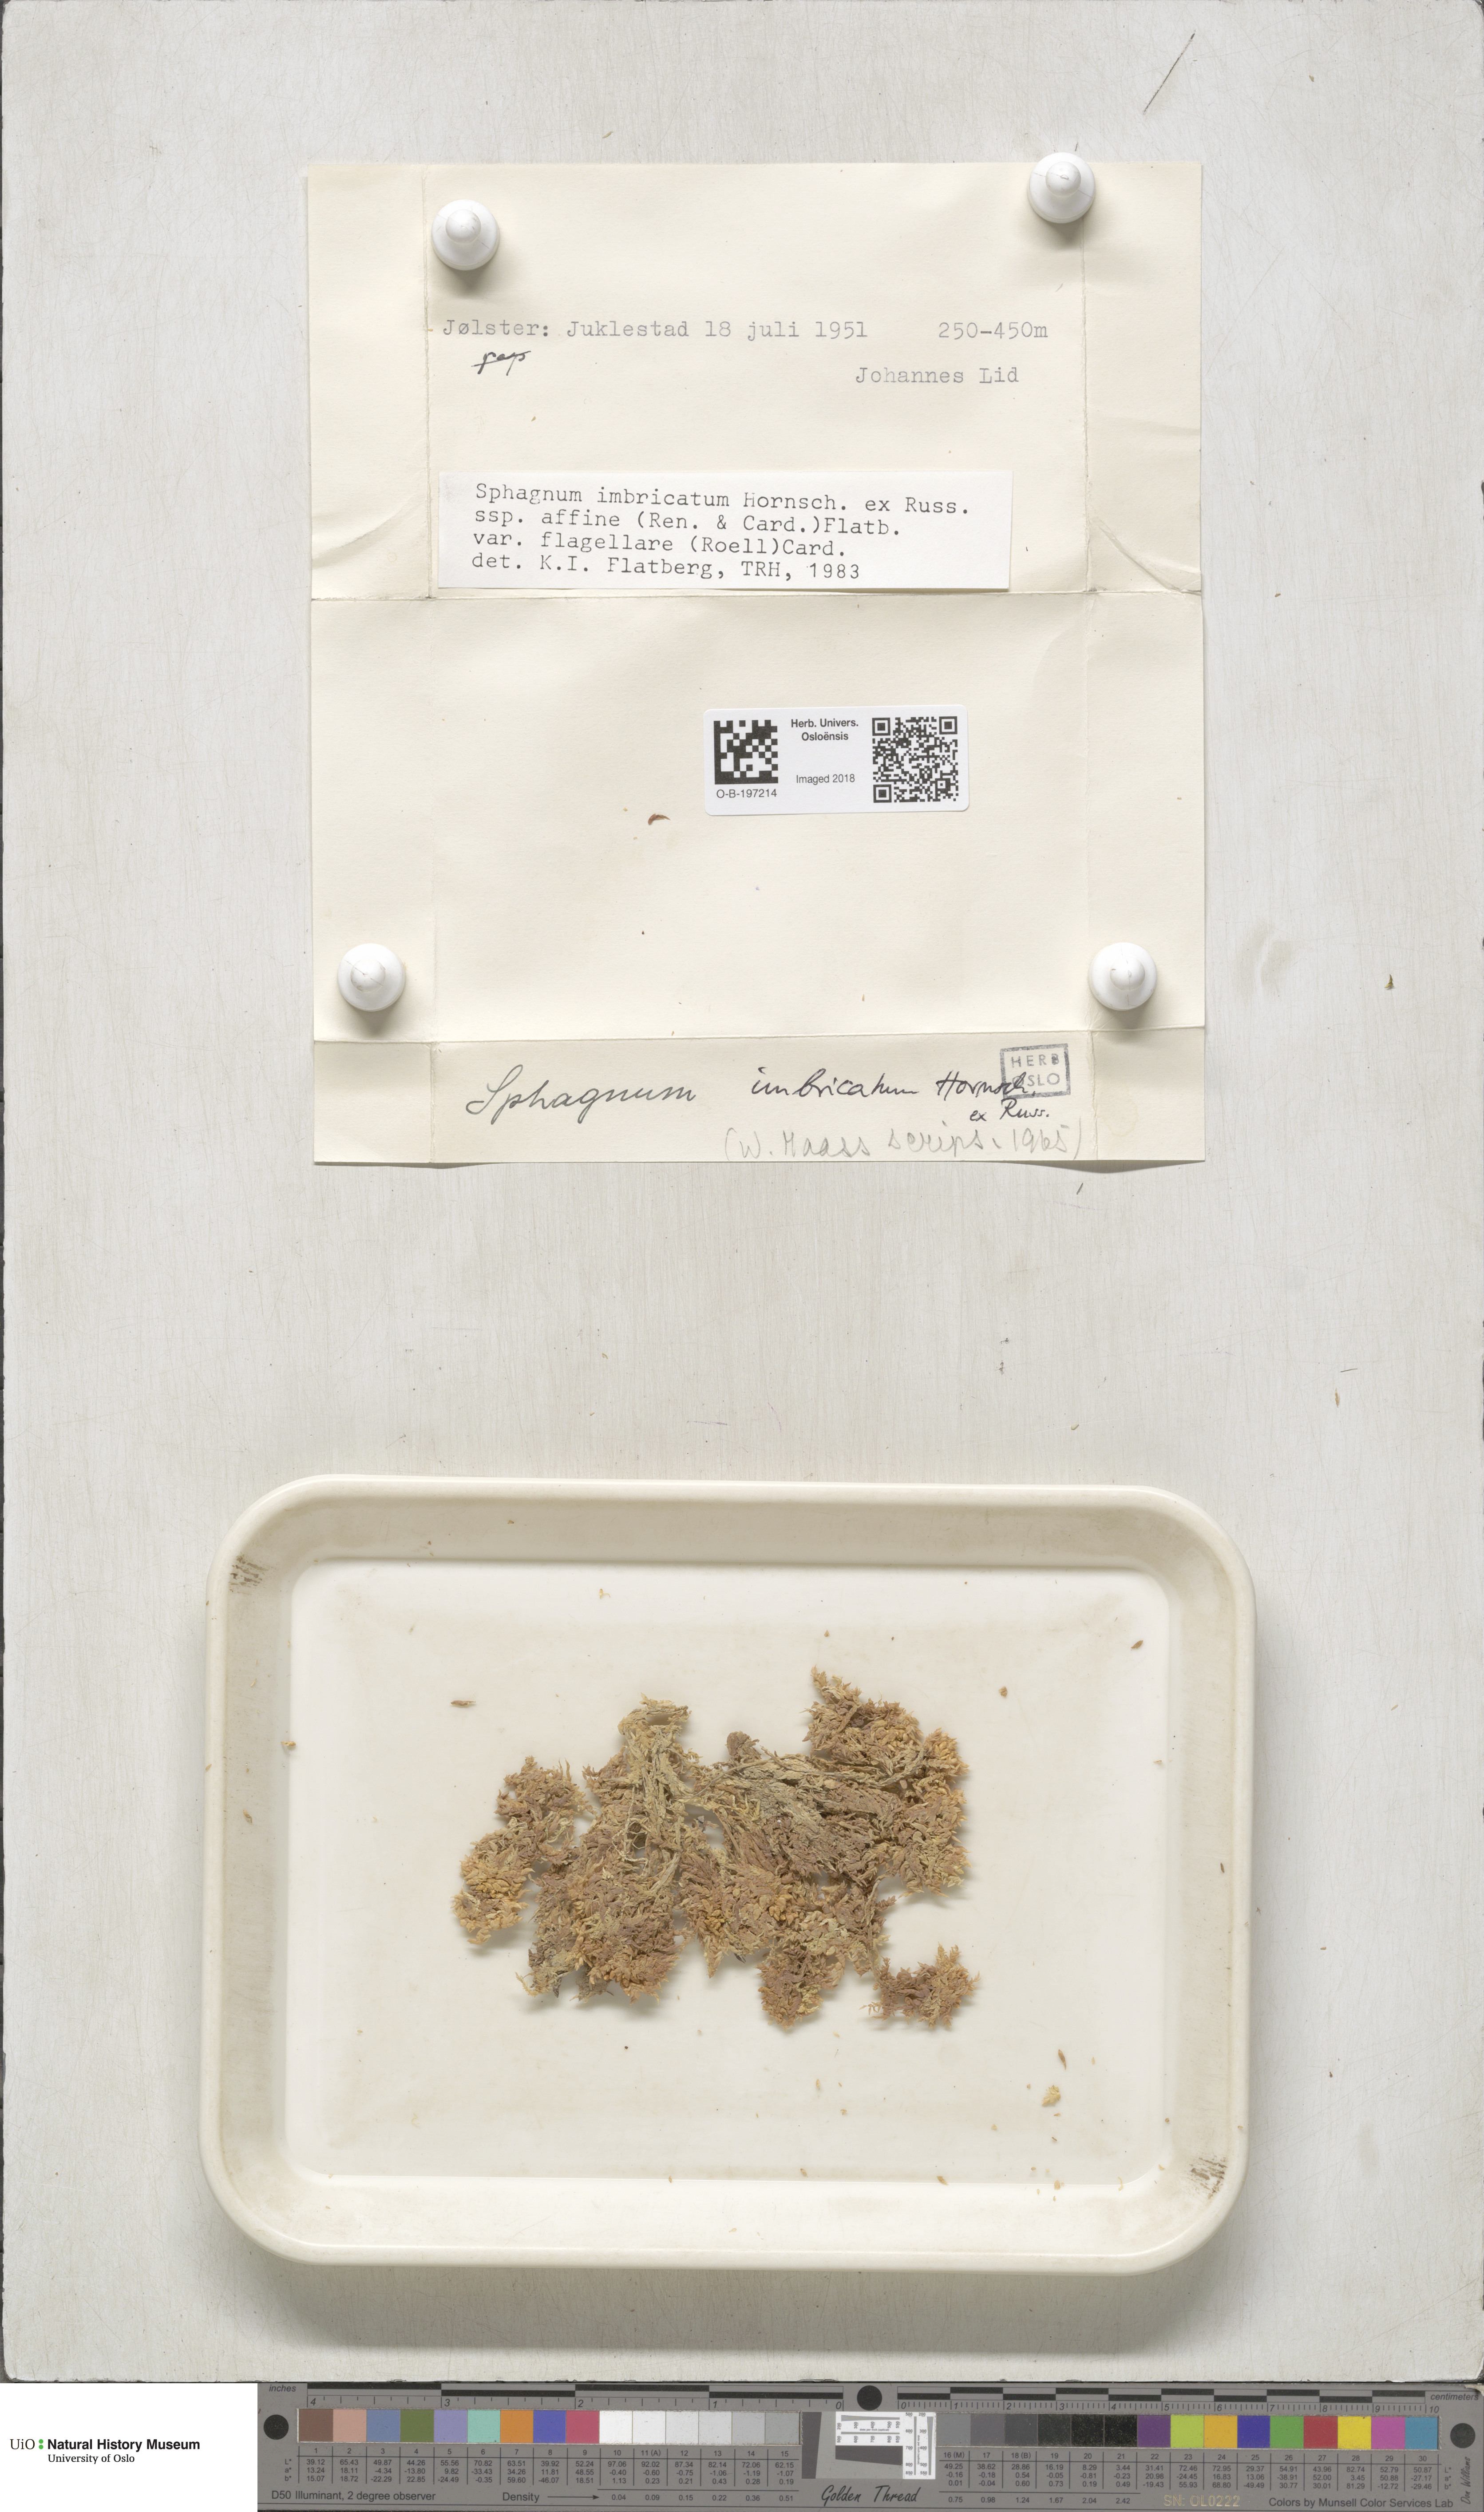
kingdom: Plantae
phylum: Bryophyta
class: Sphagnopsida
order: Sphagnales
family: Sphagnaceae
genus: Sphagnum
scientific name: Sphagnum affine
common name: Imbricate peat moss
